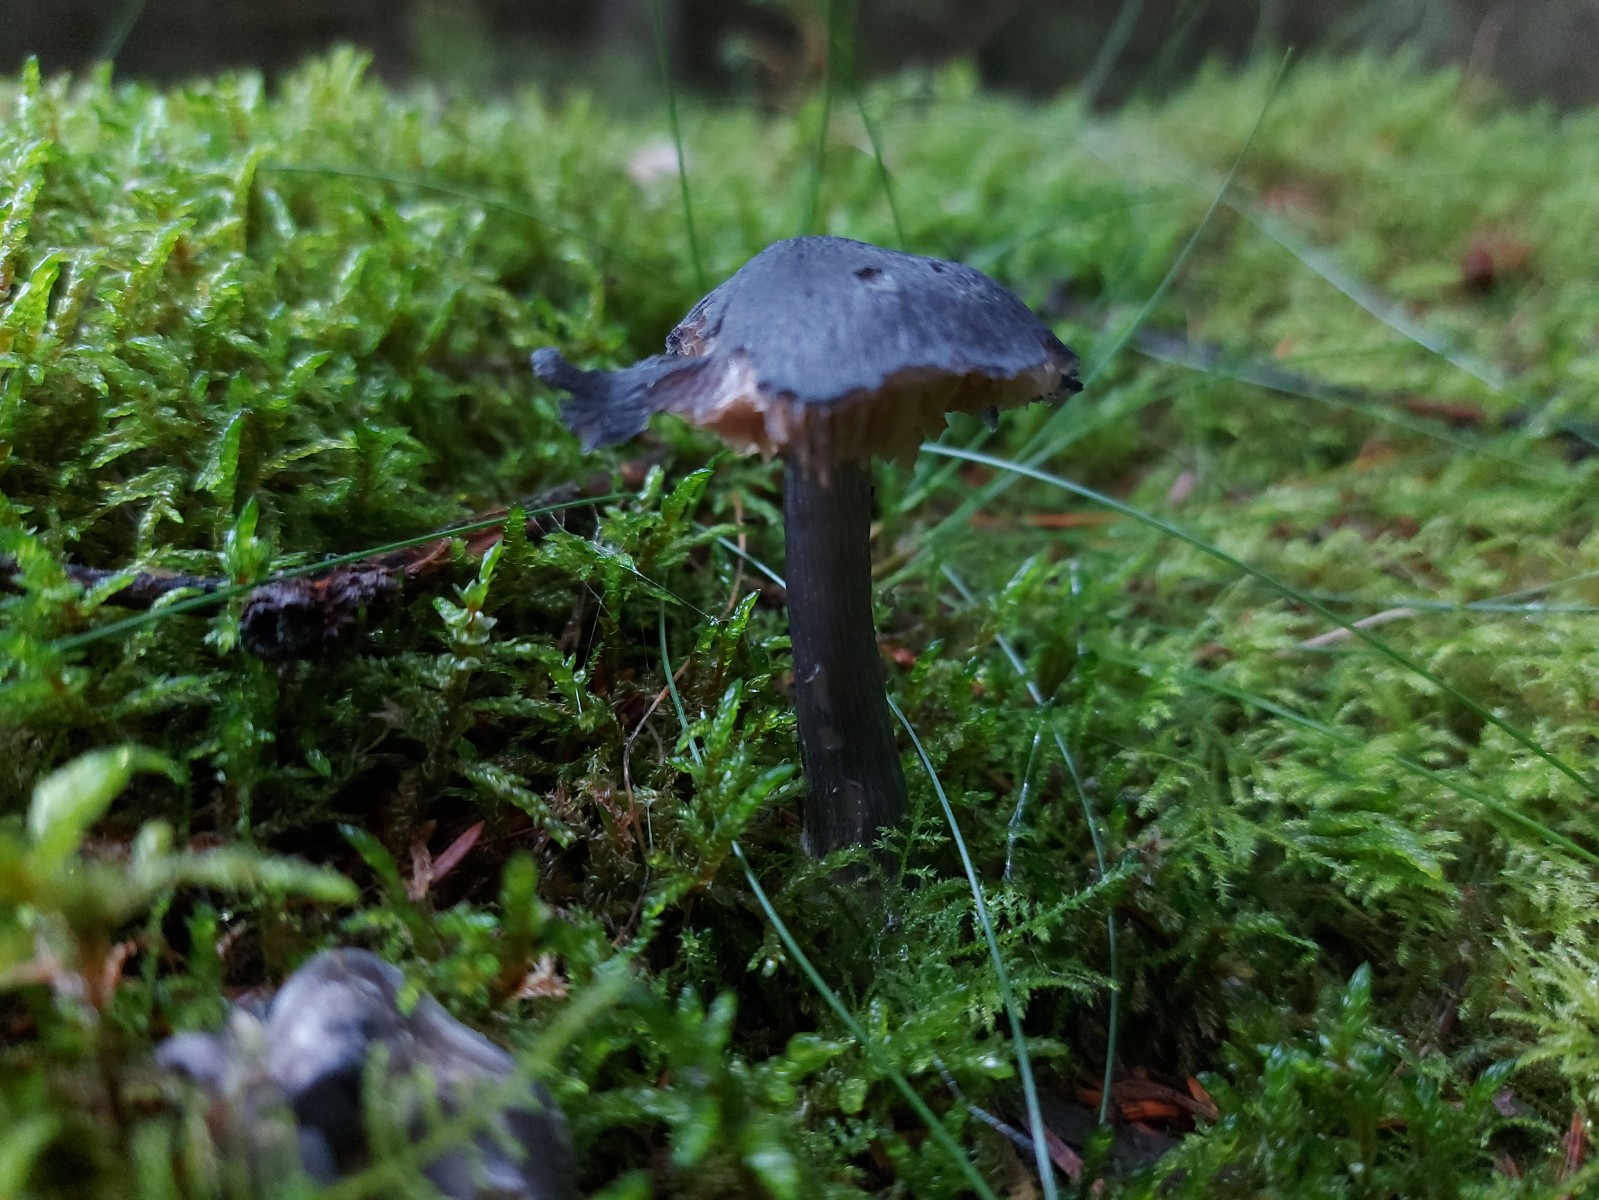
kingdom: Fungi
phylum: Basidiomycota
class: Agaricomycetes
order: Agaricales
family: Entolomataceae
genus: Entocybe
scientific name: Entocybe nitida
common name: stålblå rødblad
